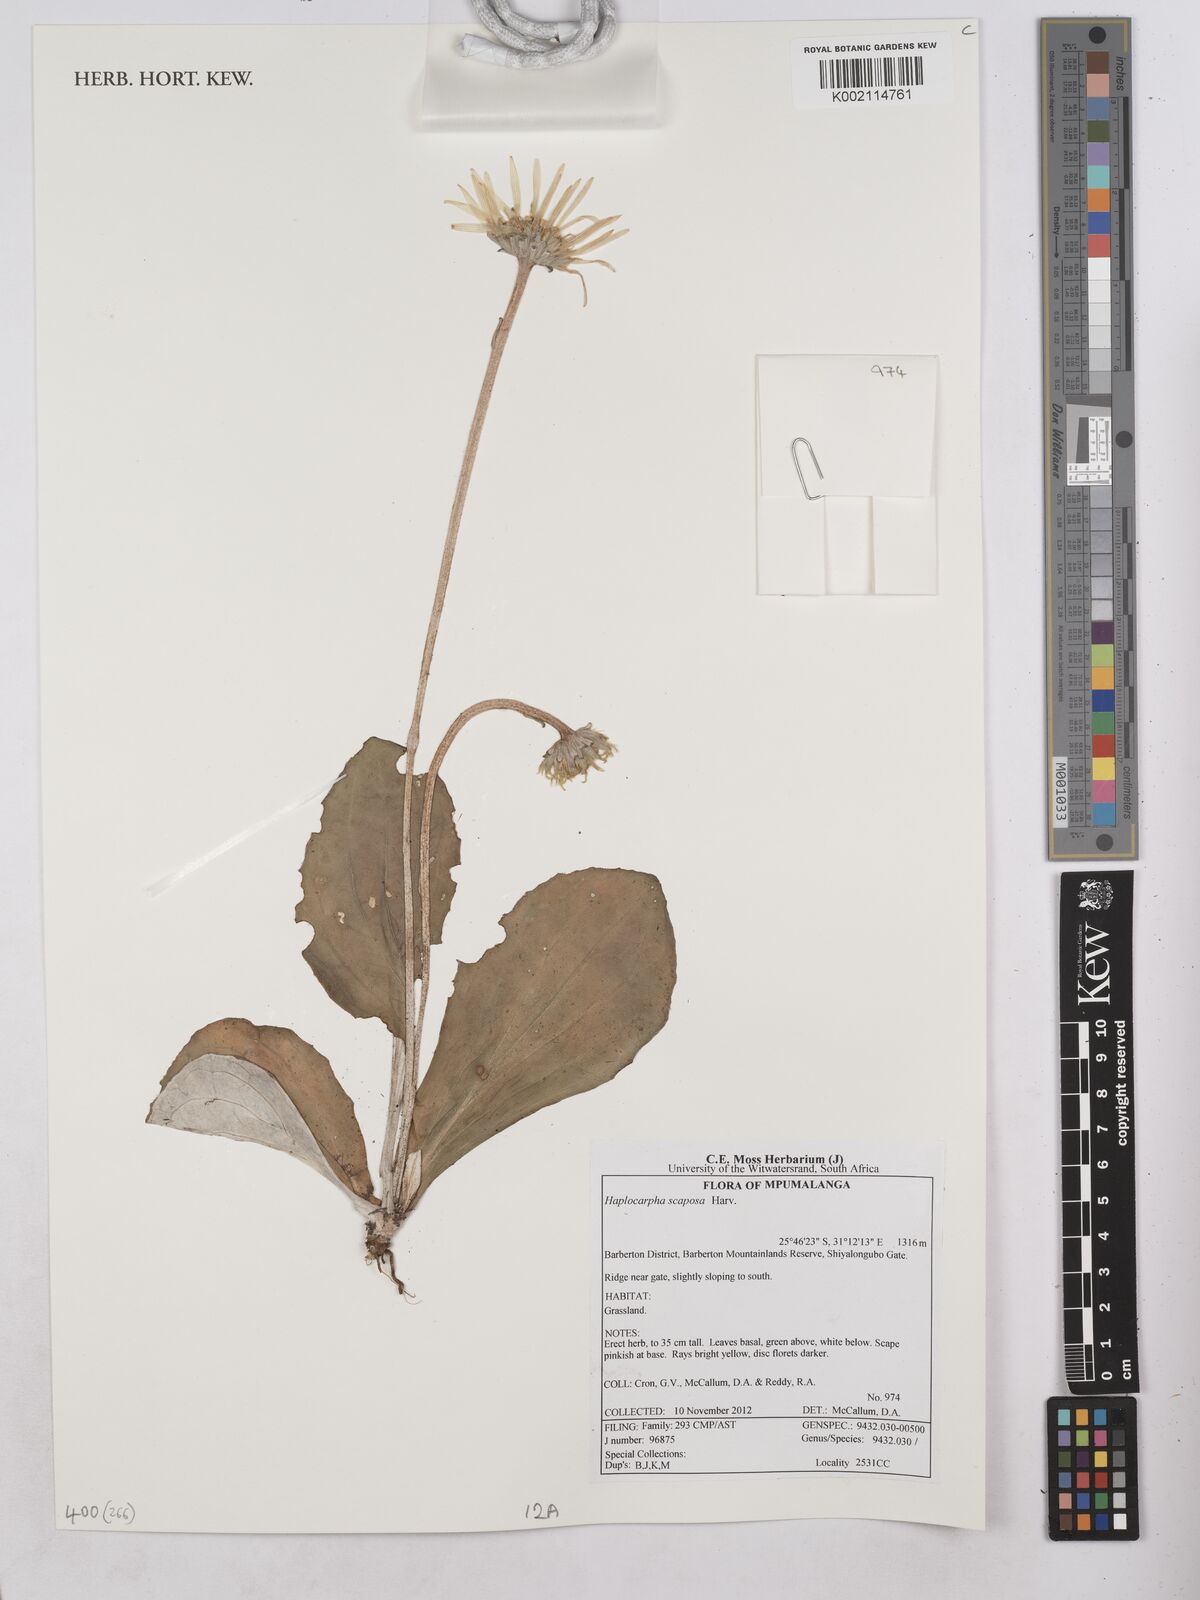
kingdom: Plantae
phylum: Tracheophyta
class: Magnoliopsida
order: Asterales
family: Asteraceae
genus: Haplocarpha
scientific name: Haplocarpha scaposa
